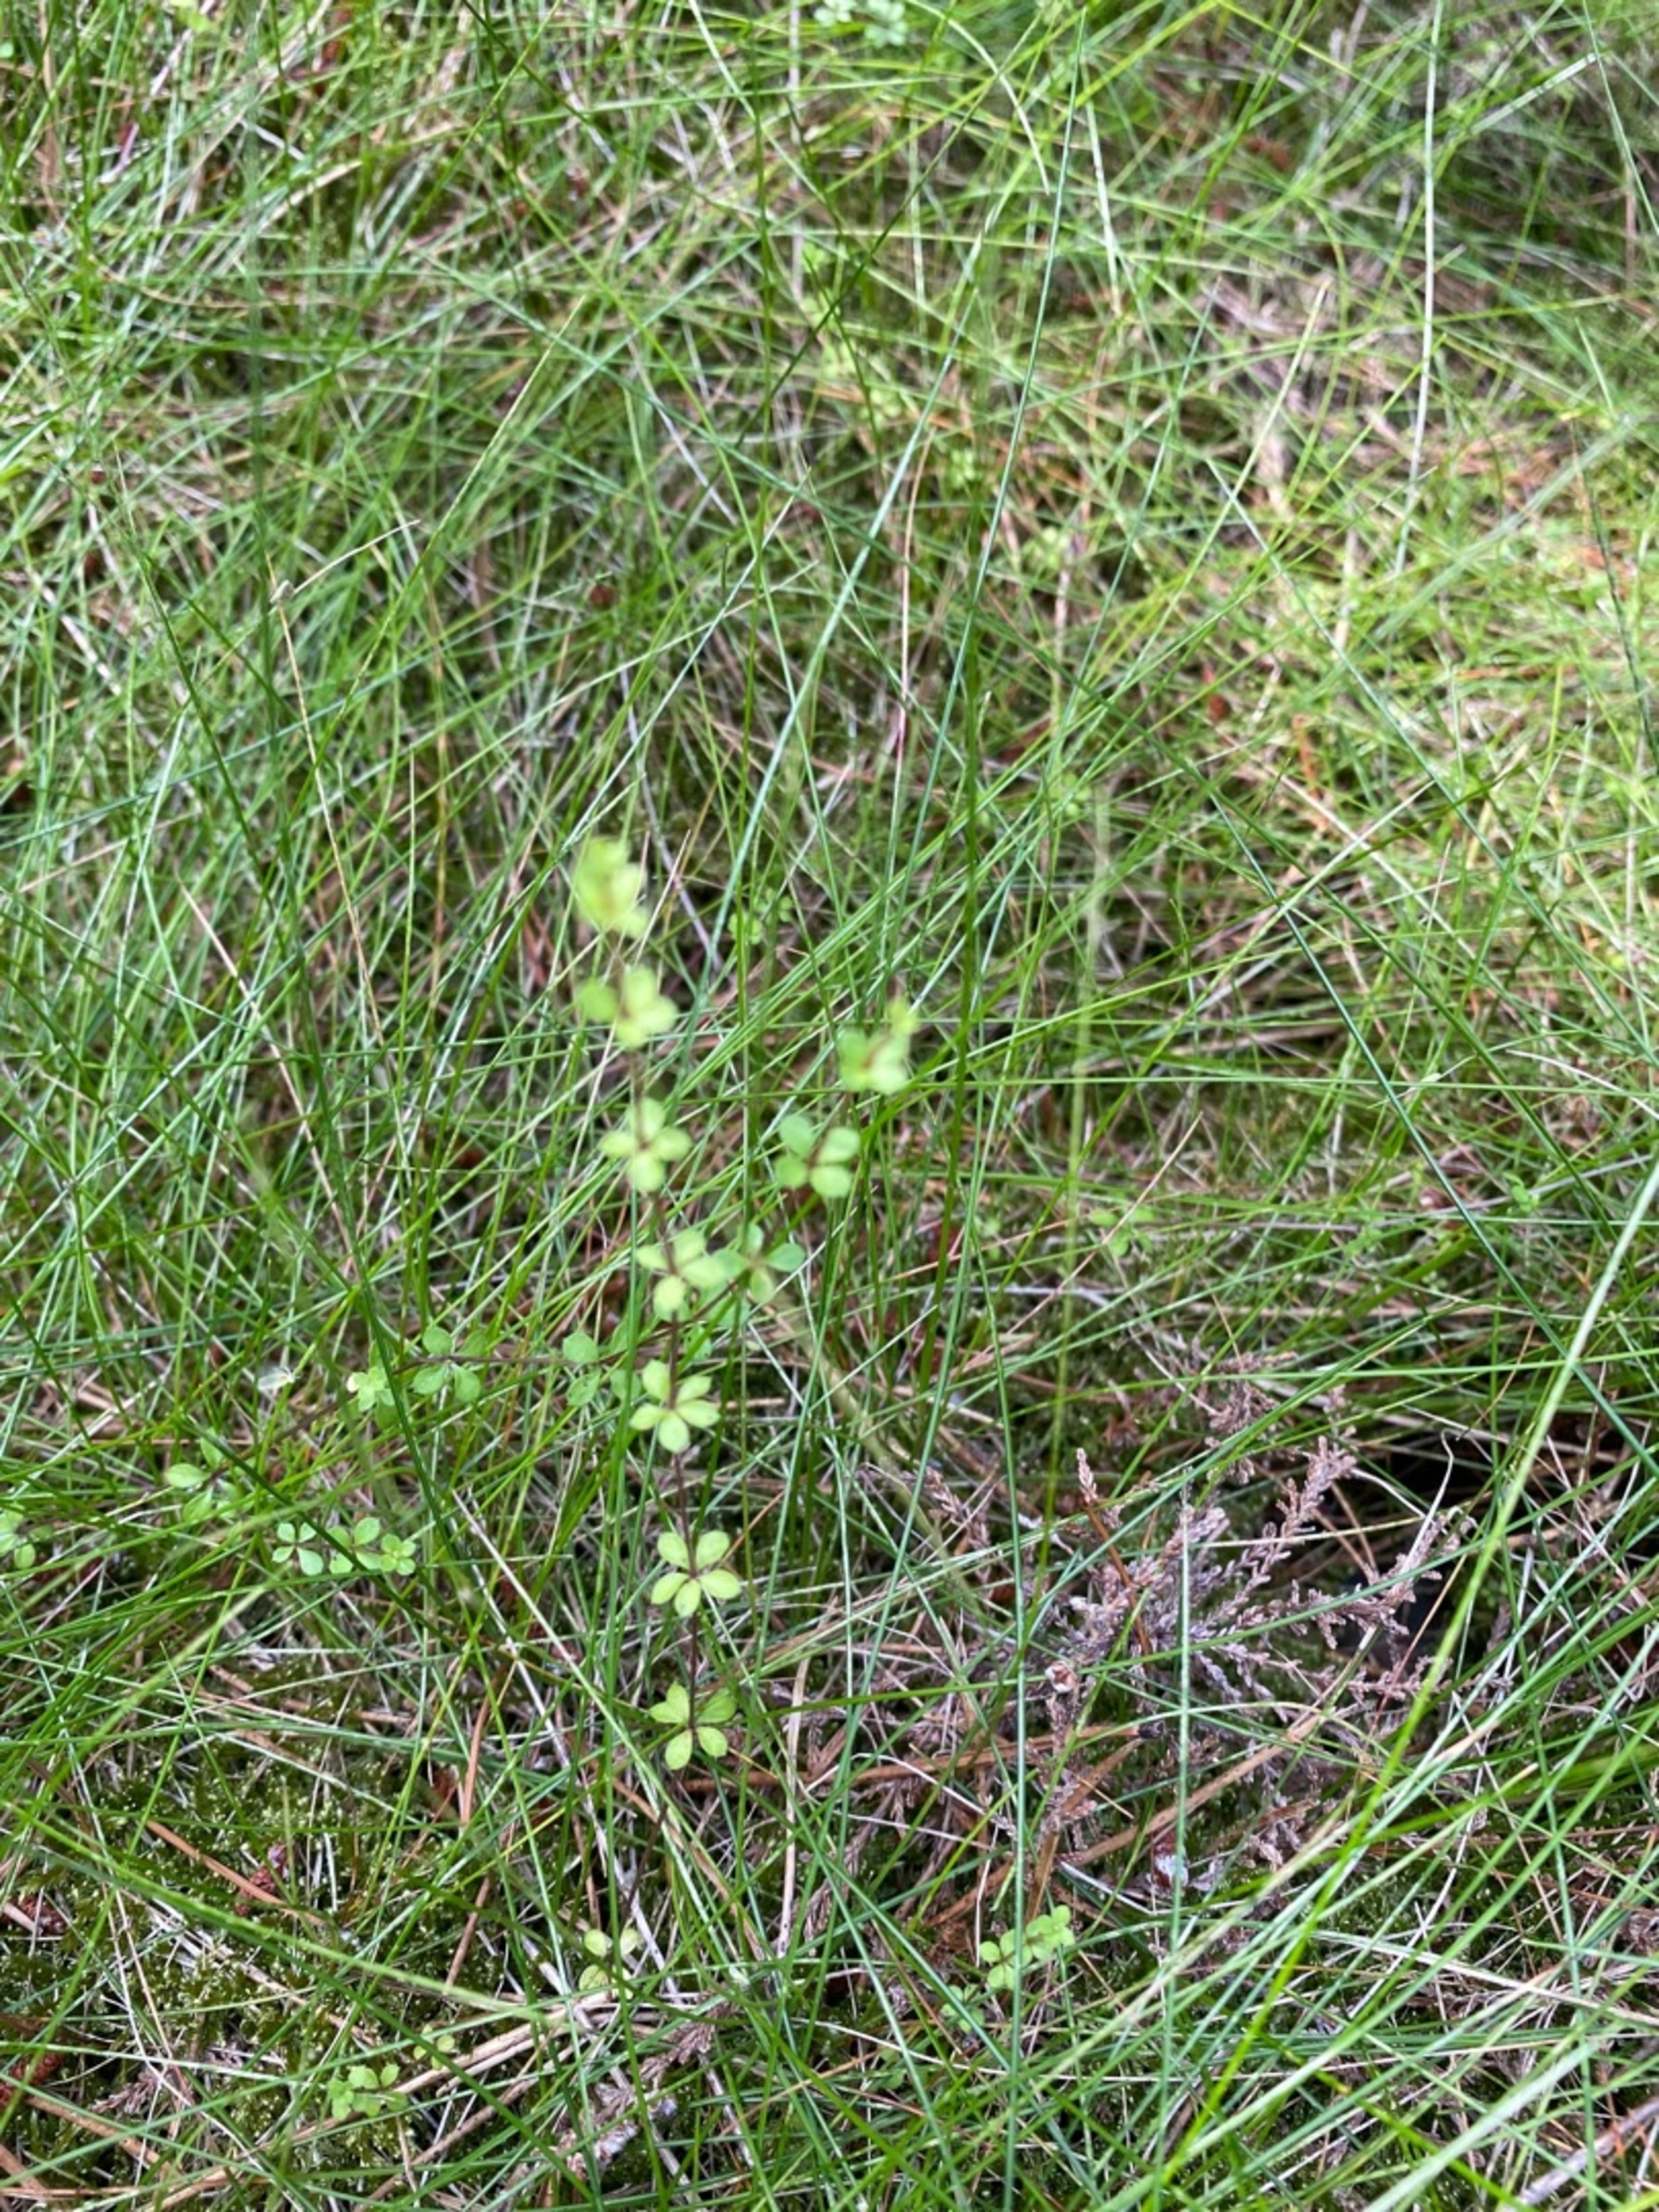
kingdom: Plantae
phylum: Tracheophyta
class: Magnoliopsida
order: Gentianales
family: Rubiaceae
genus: Galium
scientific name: Galium saxatile
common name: Lyng-snerre
